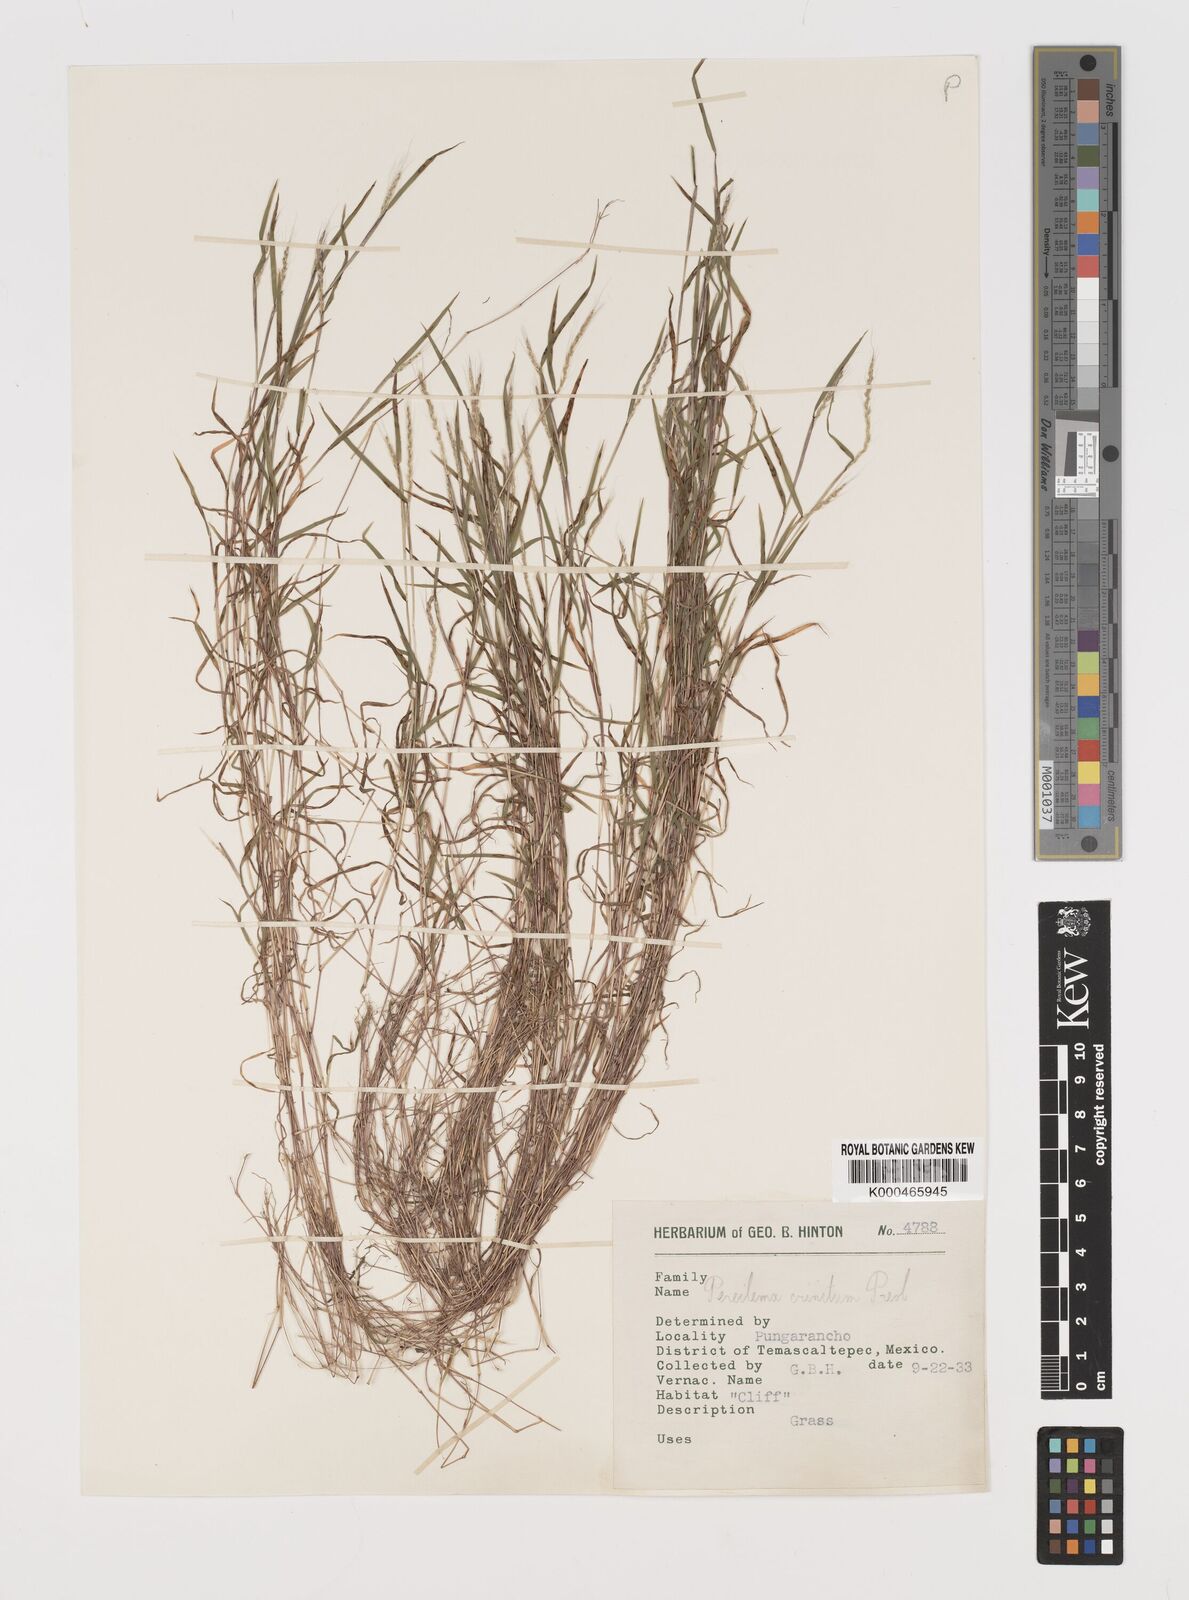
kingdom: Plantae
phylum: Tracheophyta
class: Liliopsida
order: Poales
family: Poaceae
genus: Muhlenbergia
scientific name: Muhlenbergia pereilema
